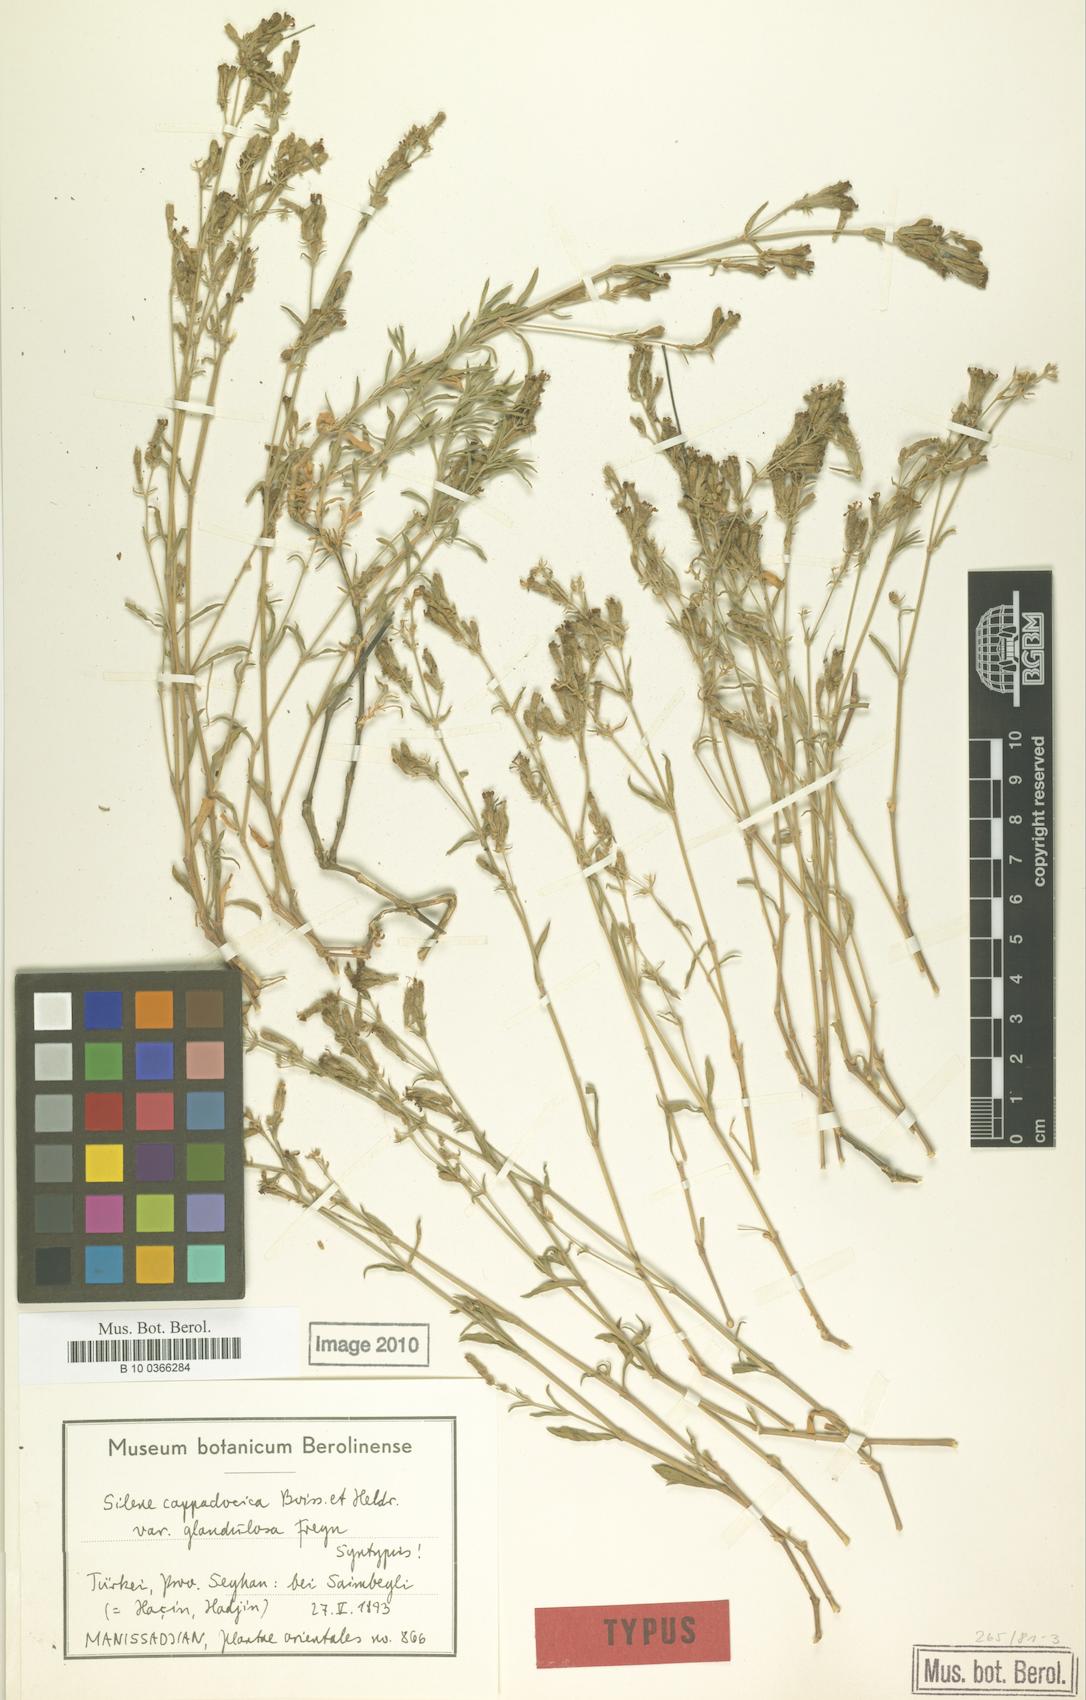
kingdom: Plantae
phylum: Tracheophyta
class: Magnoliopsida
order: Caryophyllales
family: Caryophyllaceae
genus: Silene
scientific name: Silene cappadocica
